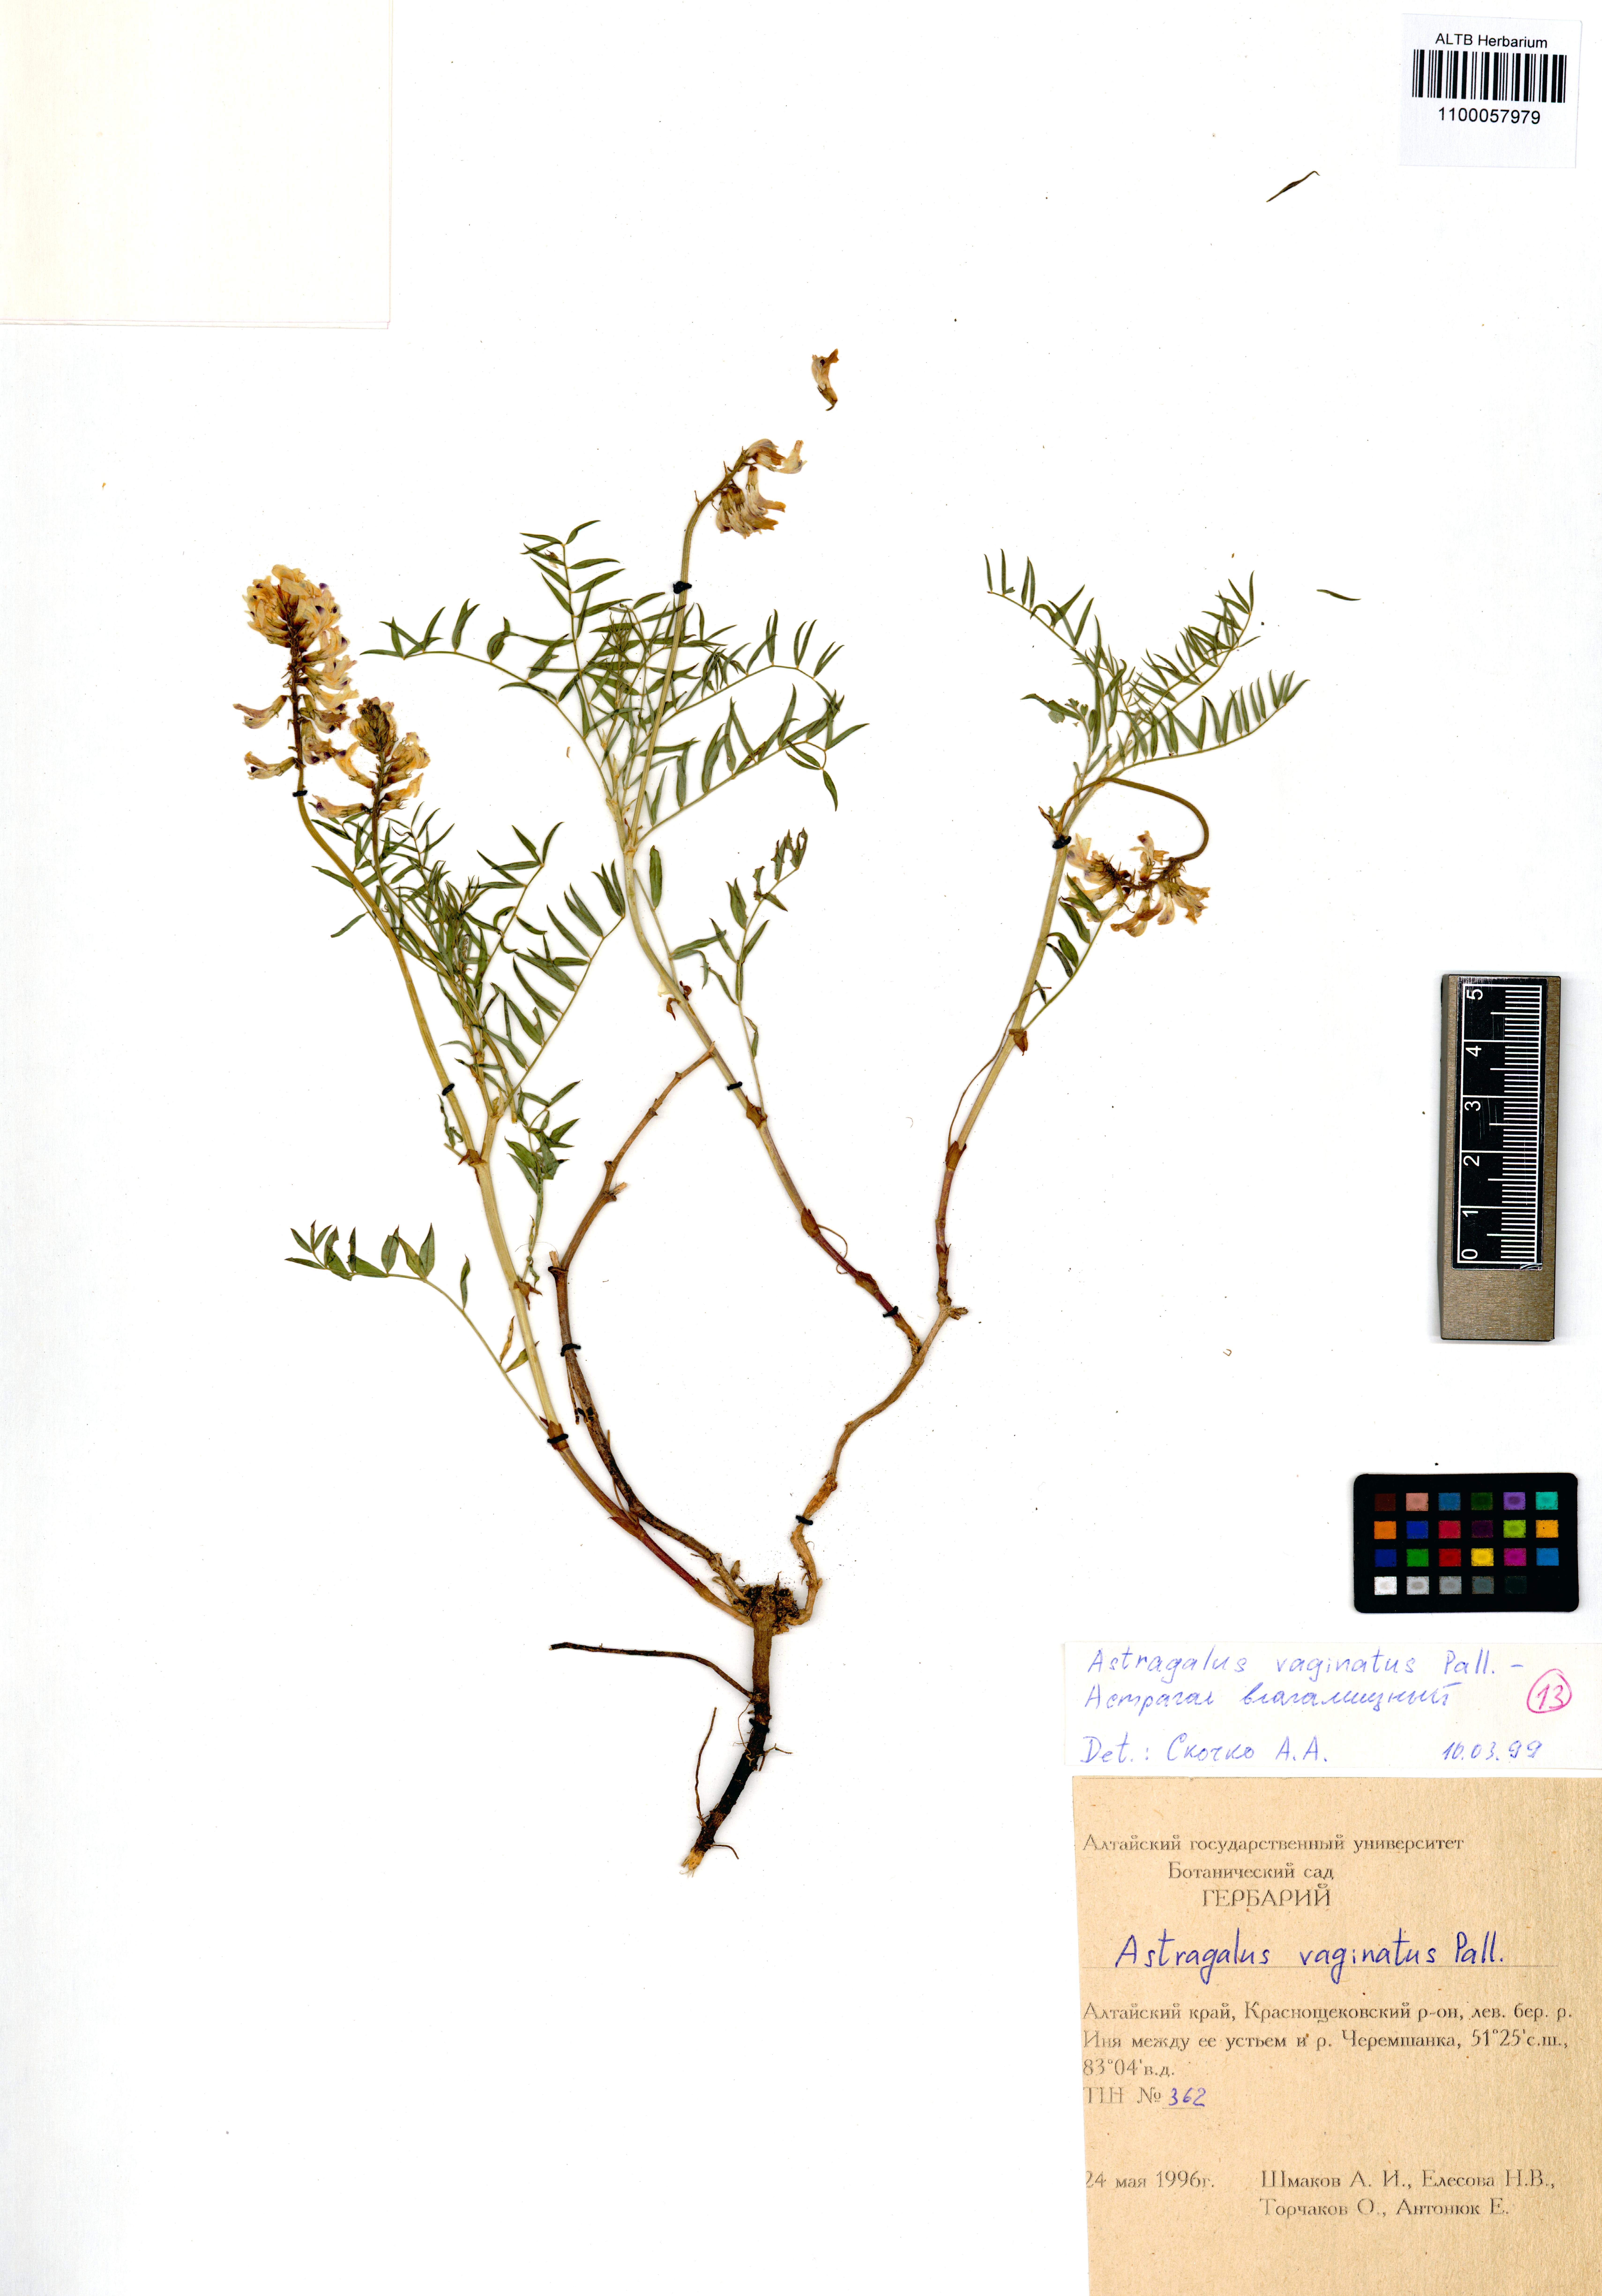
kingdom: Plantae
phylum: Tracheophyta
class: Magnoliopsida
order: Fabales
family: Fabaceae
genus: Astragalus
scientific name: Astragalus vaginatus
